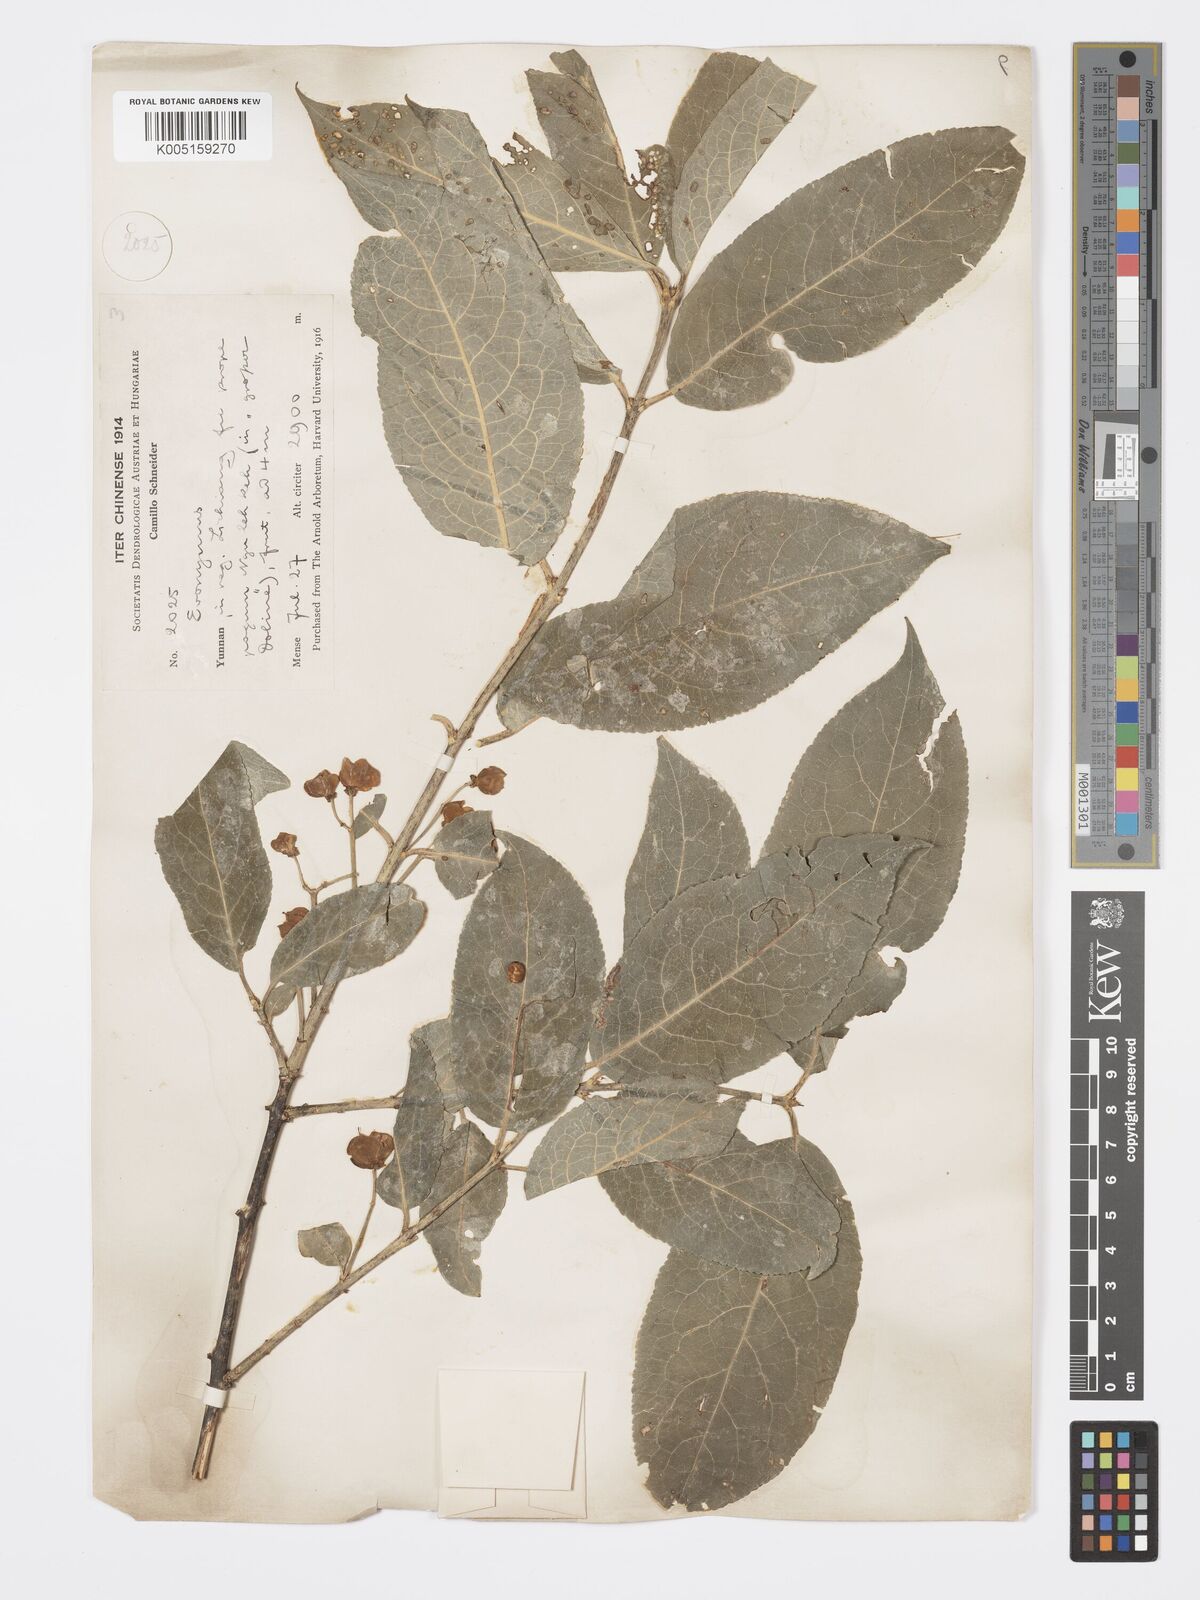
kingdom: Plantae
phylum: Tracheophyta
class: Magnoliopsida
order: Celastrales
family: Celastraceae
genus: Euonymus
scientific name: Euonymus hamiltonianus
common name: Hamilton's spindletree
